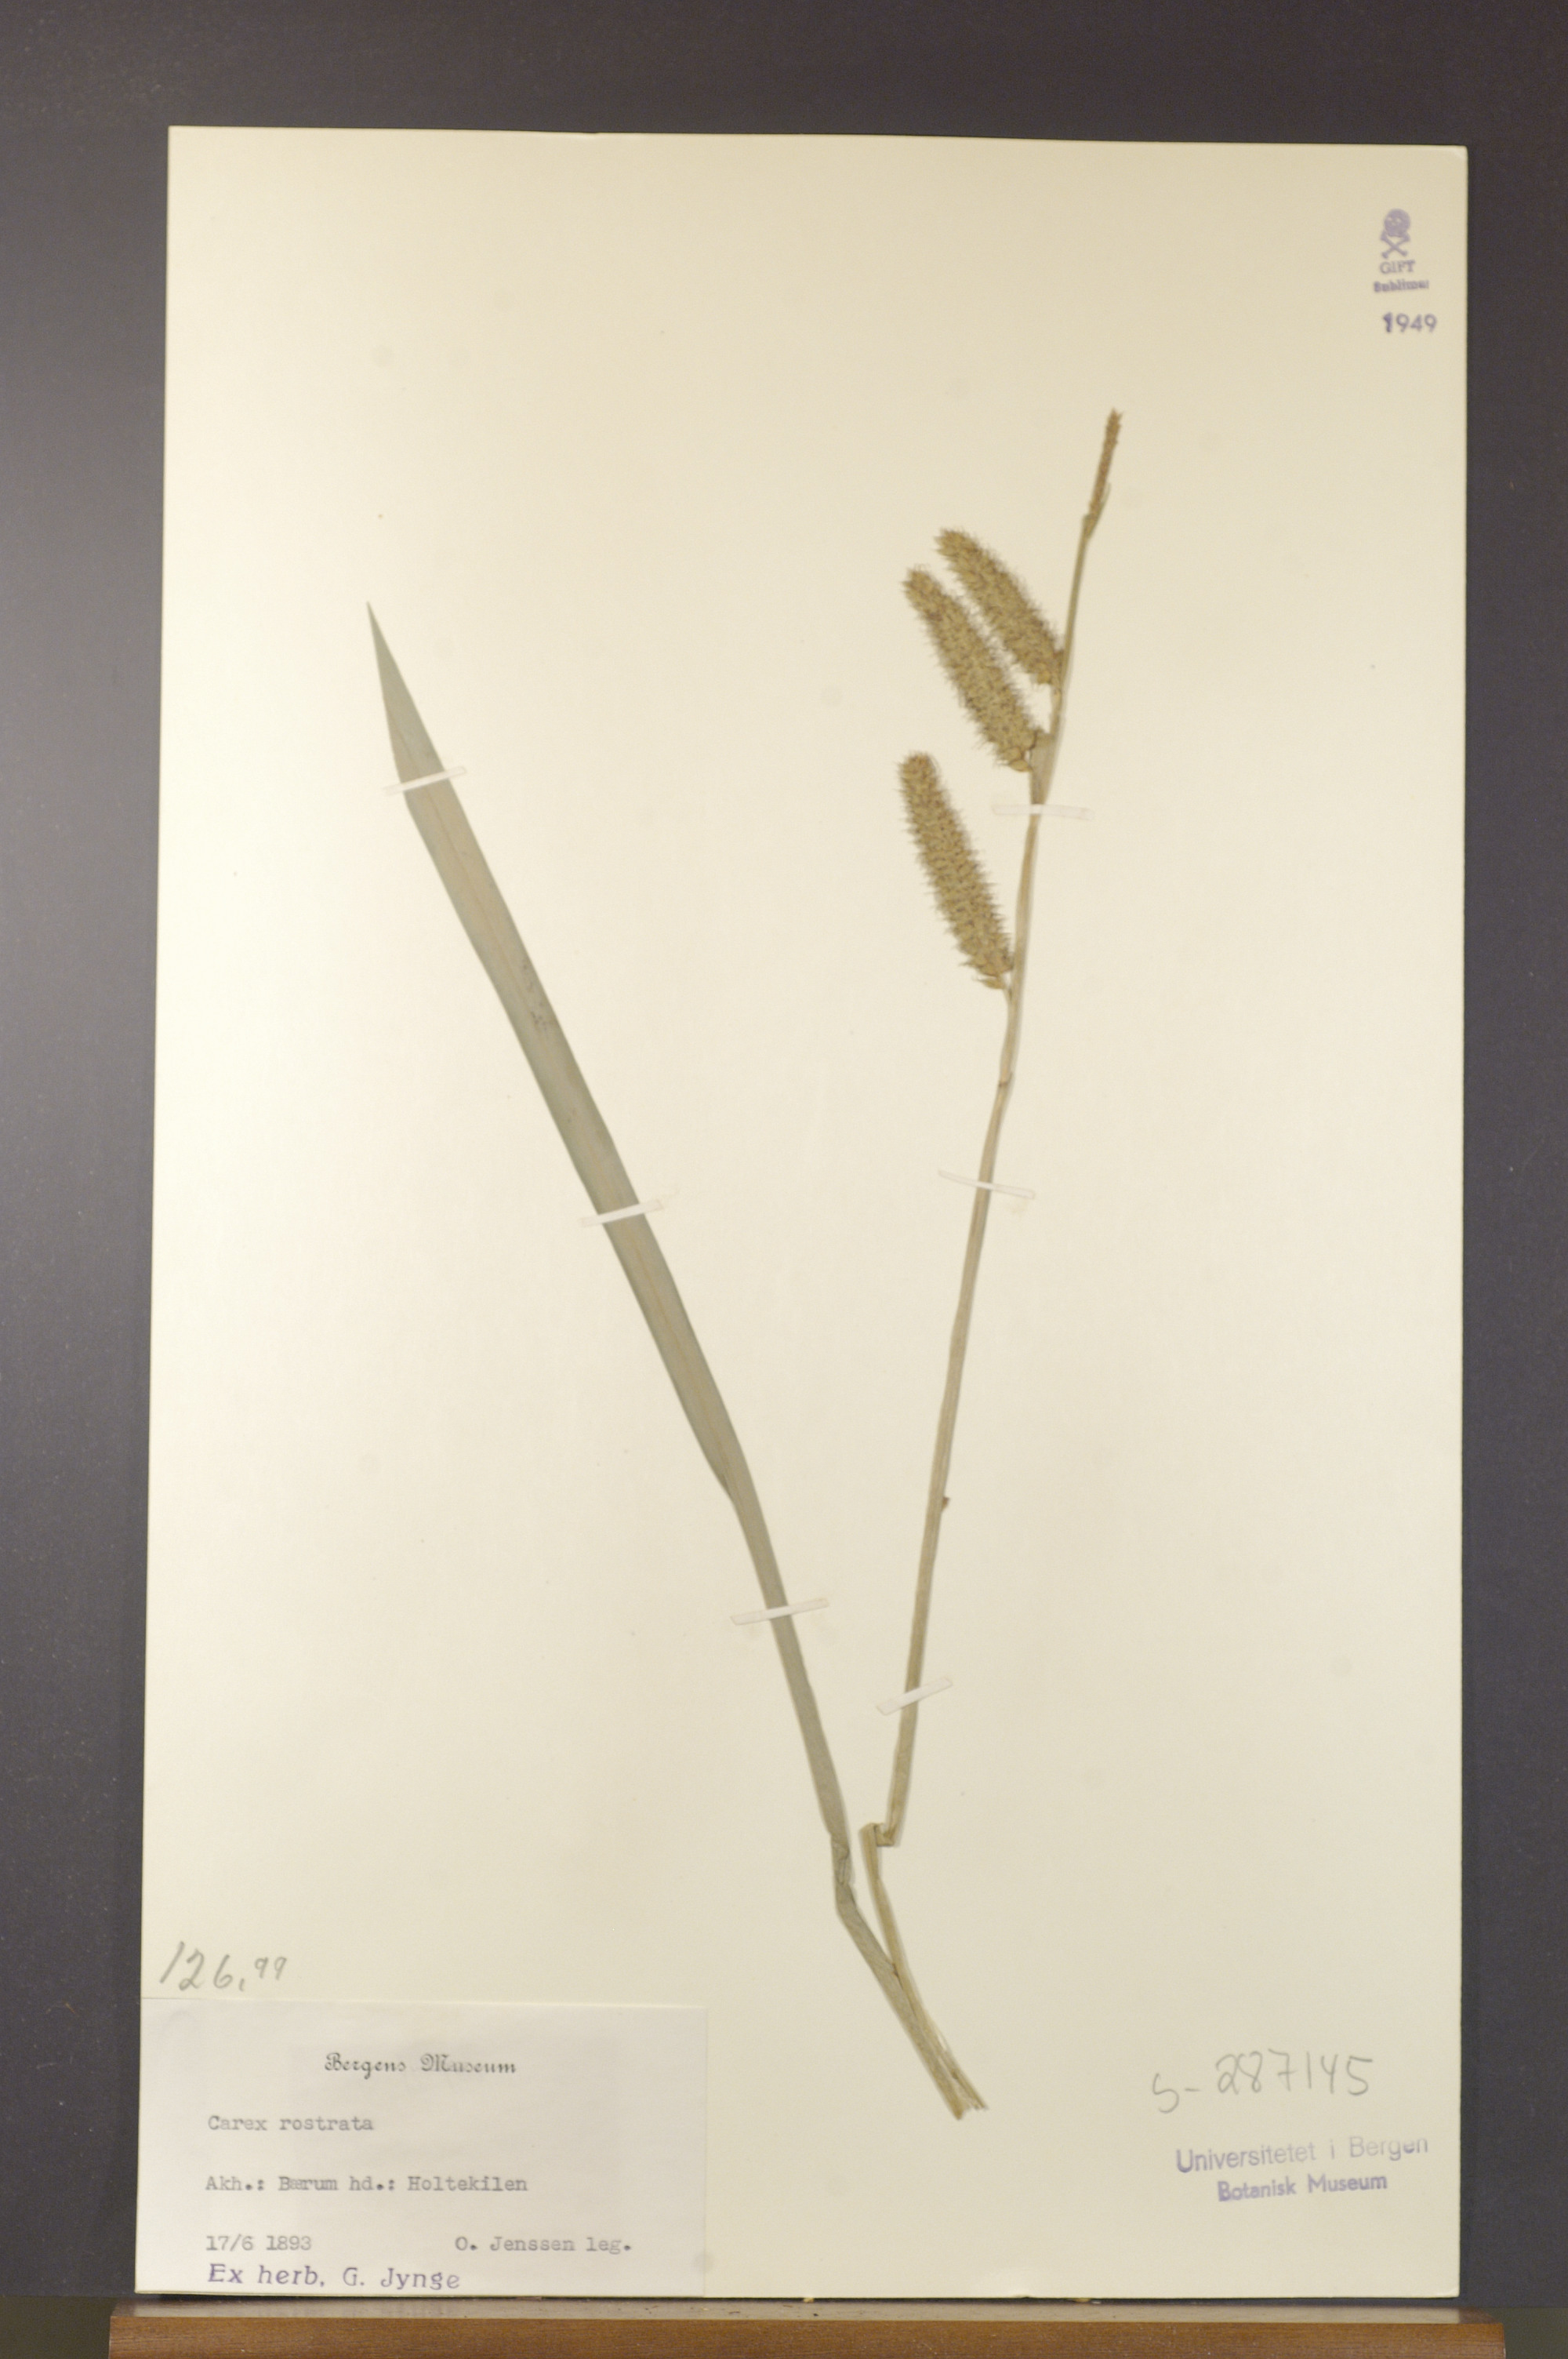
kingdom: Plantae
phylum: Tracheophyta
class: Liliopsida
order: Poales
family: Cyperaceae
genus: Carex
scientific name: Carex rostrata
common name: Bottle sedge
